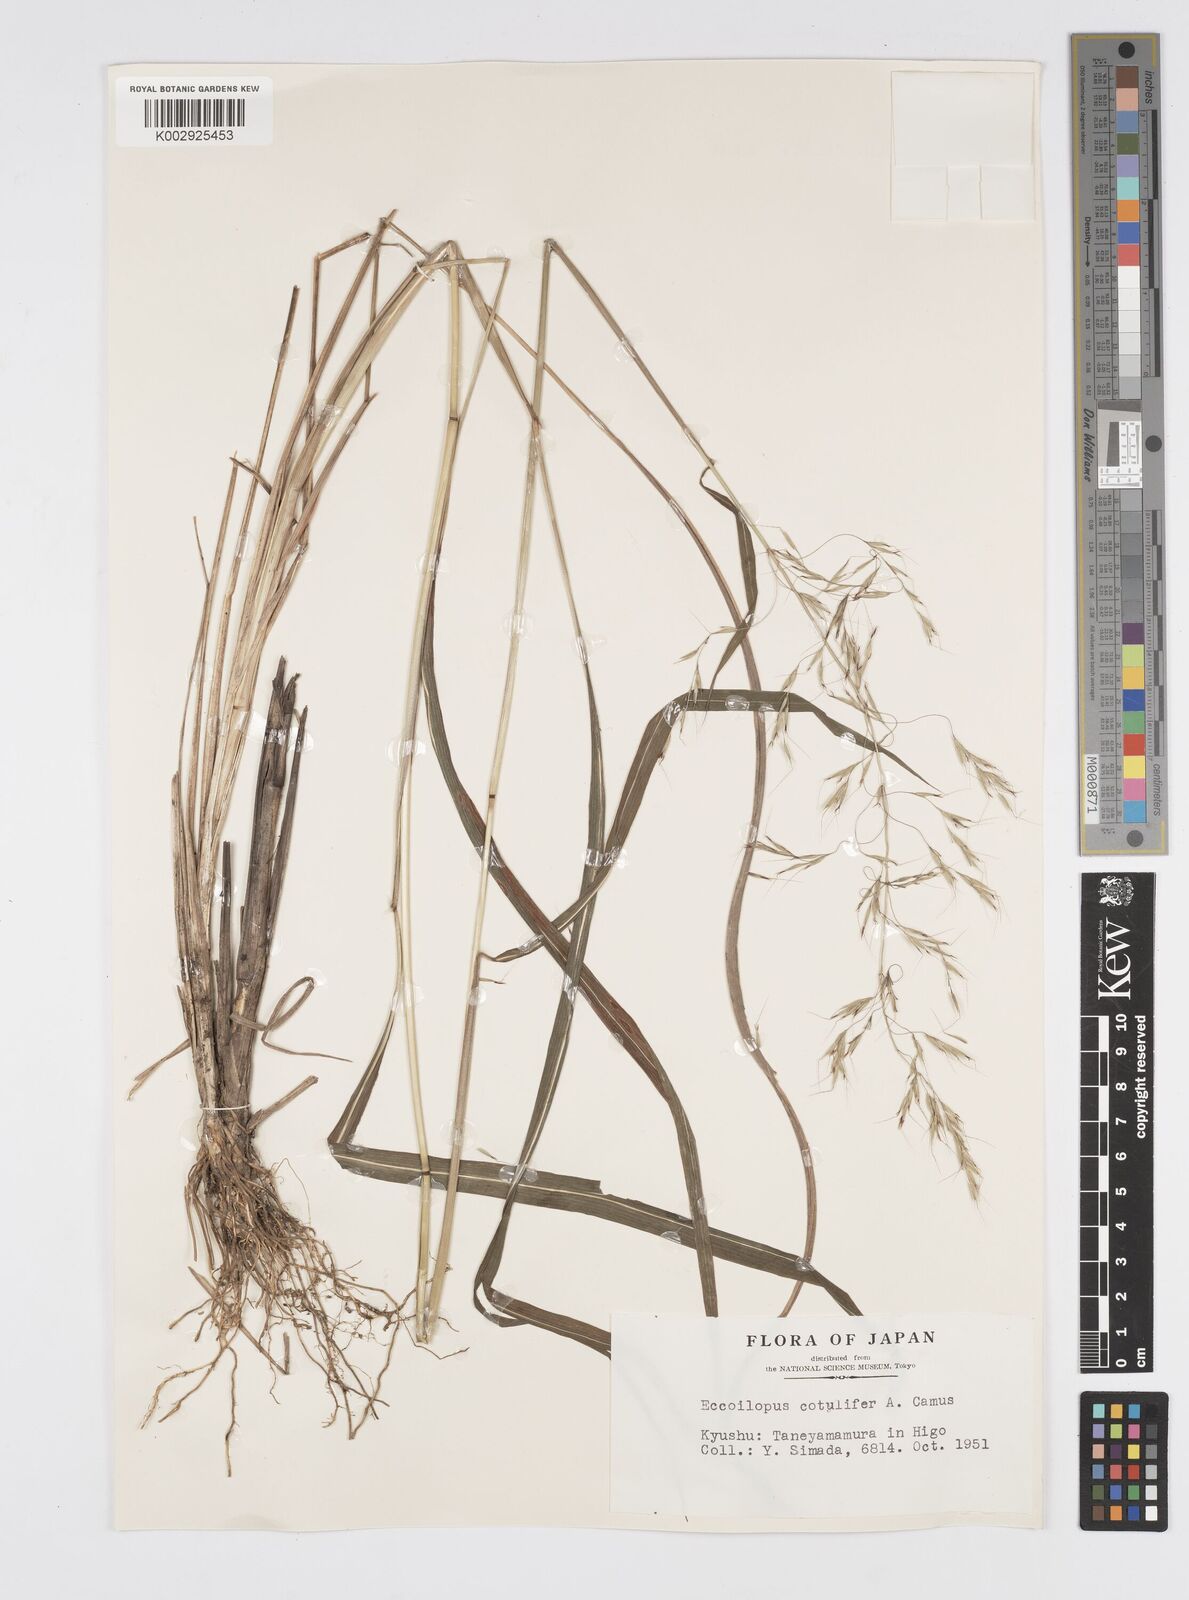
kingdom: Plantae
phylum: Tracheophyta
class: Liliopsida
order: Poales
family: Poaceae
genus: Spodiopogon
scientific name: Spodiopogon cotulifer
